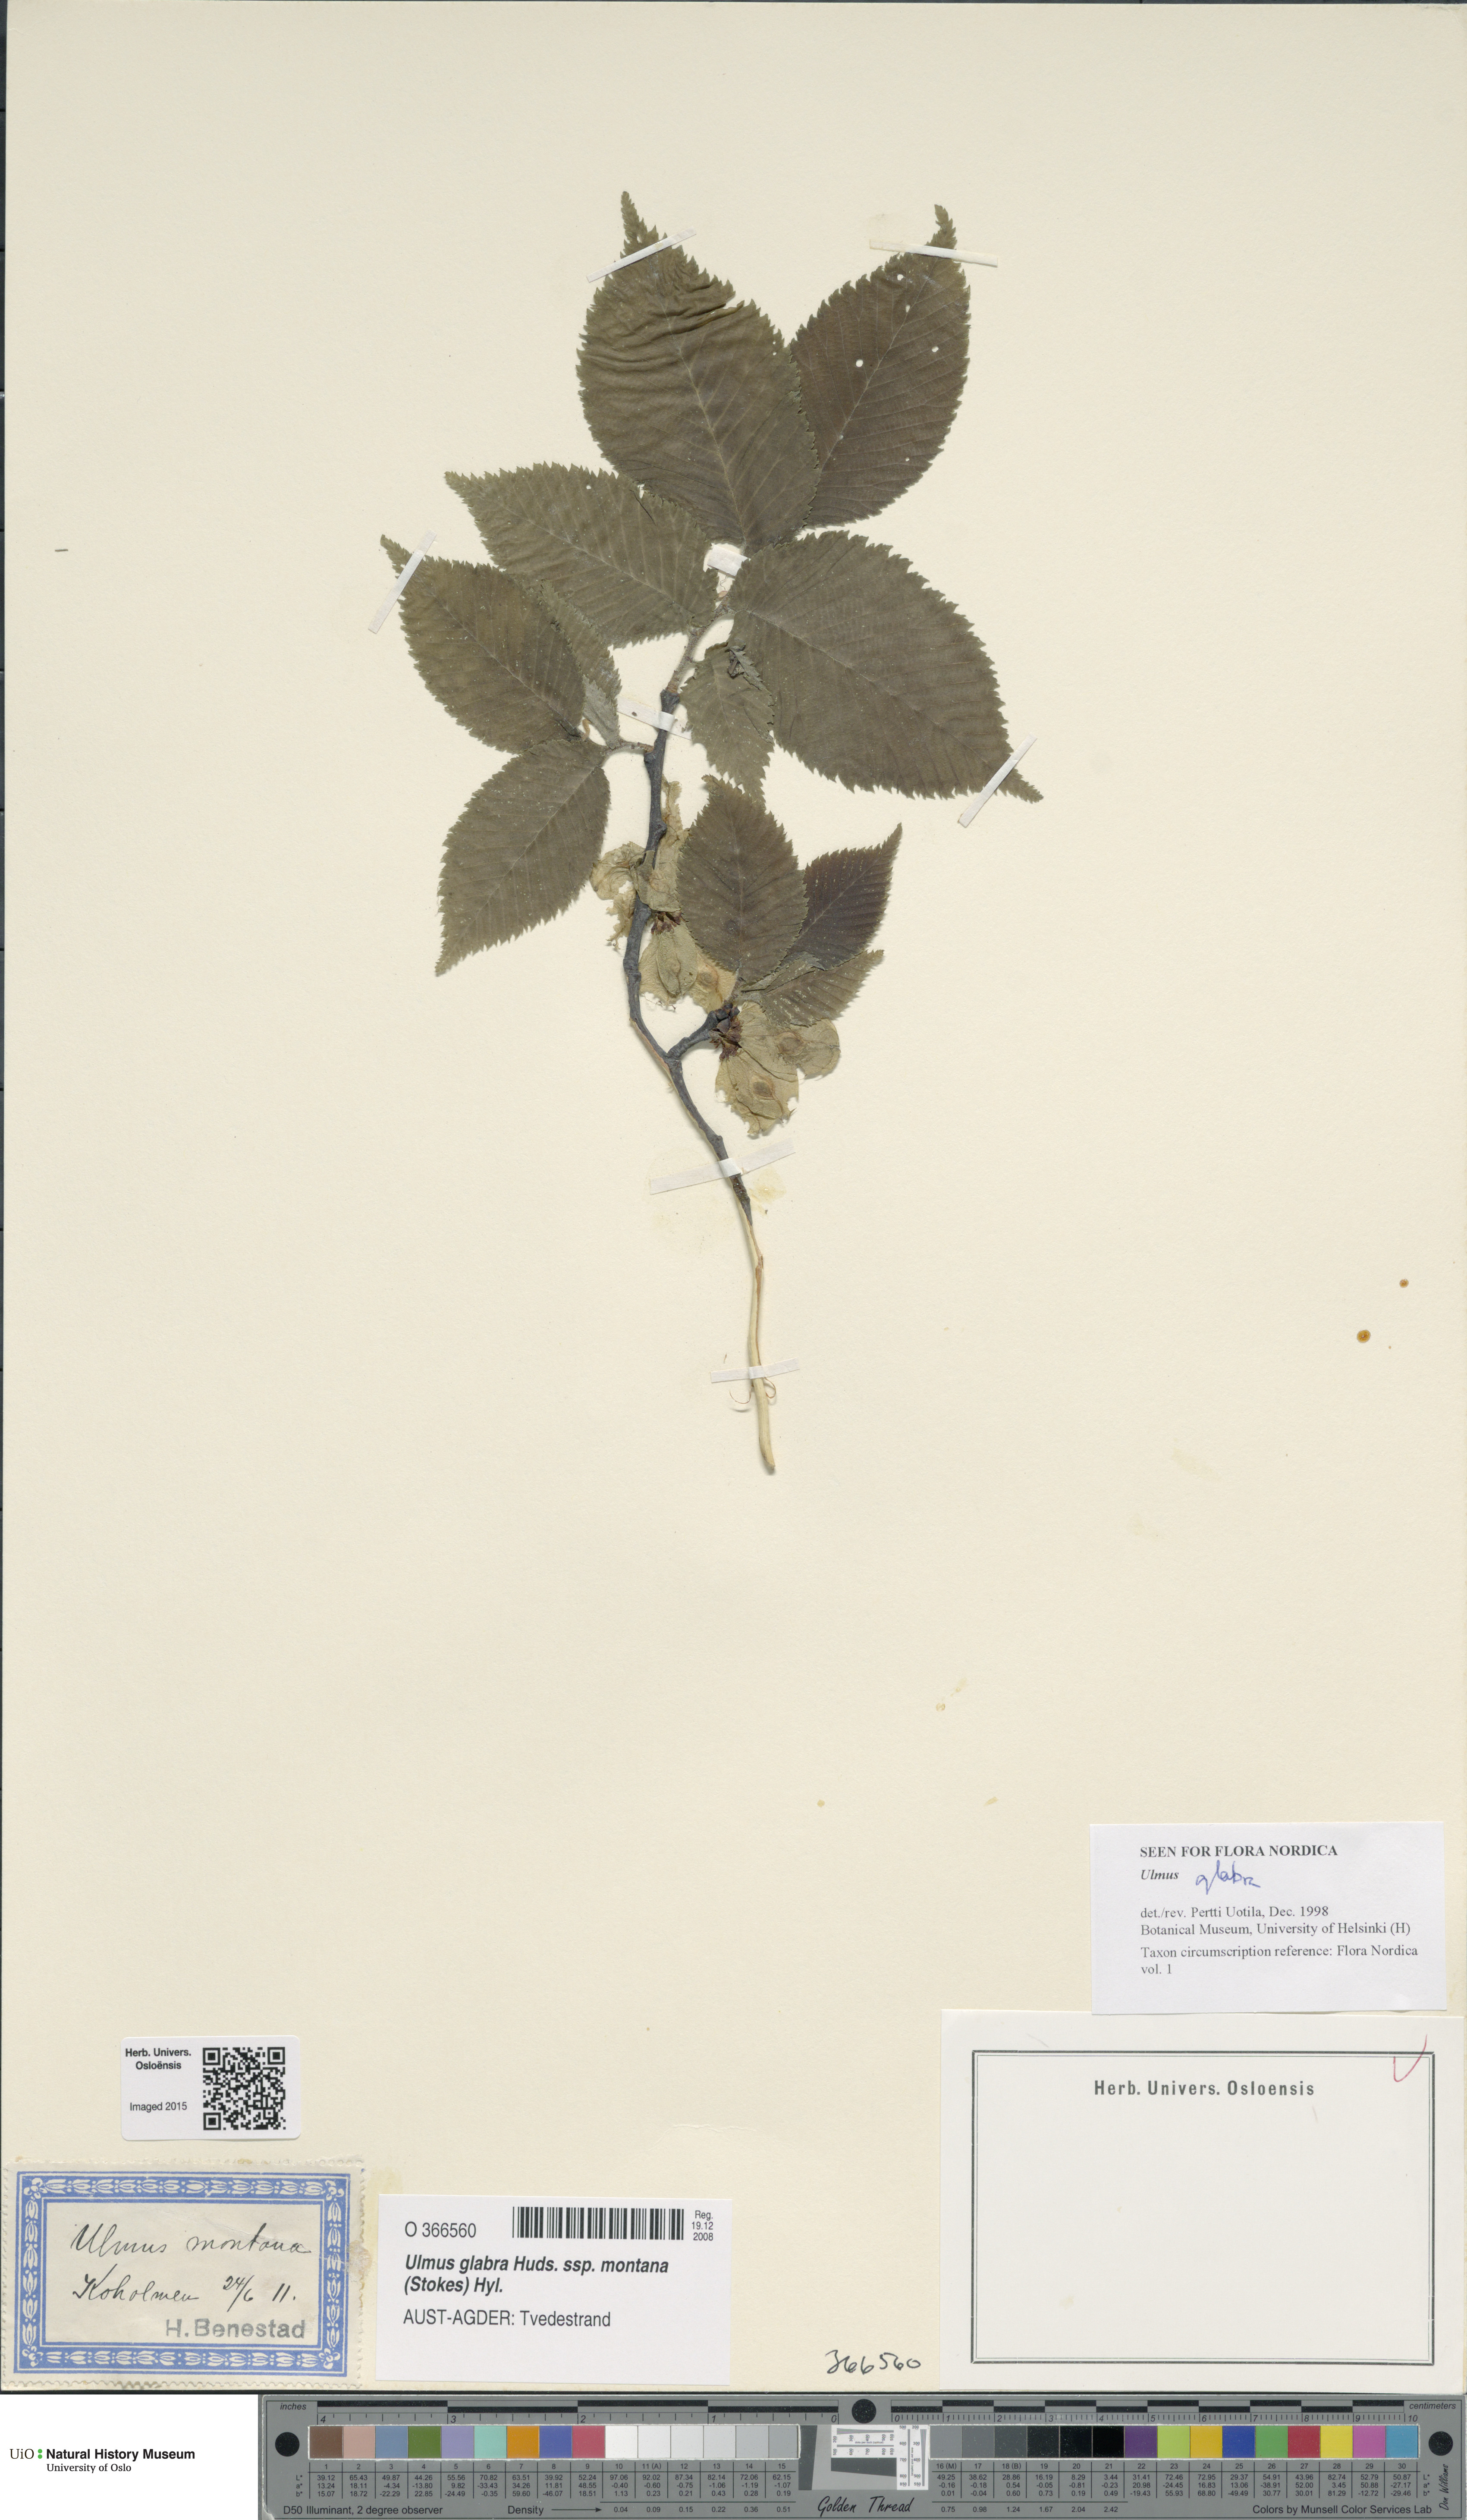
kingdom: Plantae
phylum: Tracheophyta
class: Magnoliopsida
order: Rosales
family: Ulmaceae
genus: Ulmus
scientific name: Ulmus glabra
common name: Wych elm
